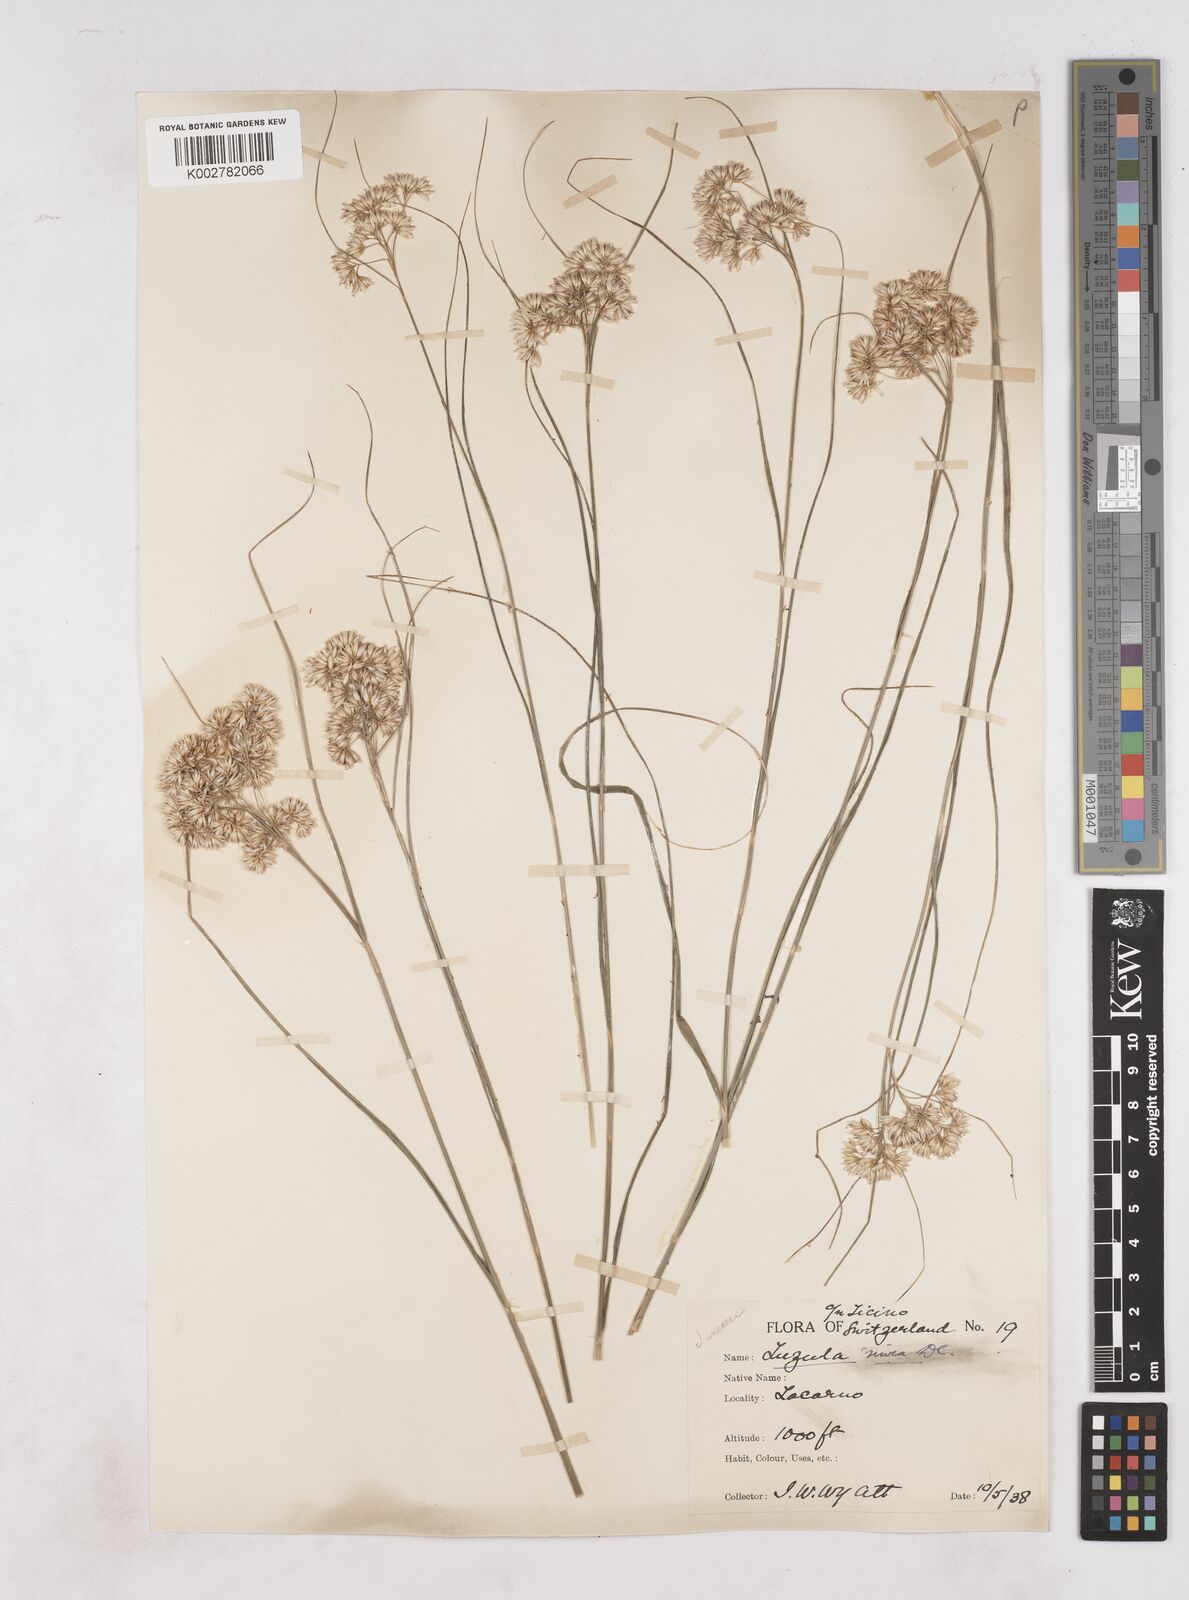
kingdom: Plantae
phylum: Tracheophyta
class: Liliopsida
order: Poales
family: Juncaceae
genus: Luzula
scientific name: Luzula nivea
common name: Snow-white wood-rush
